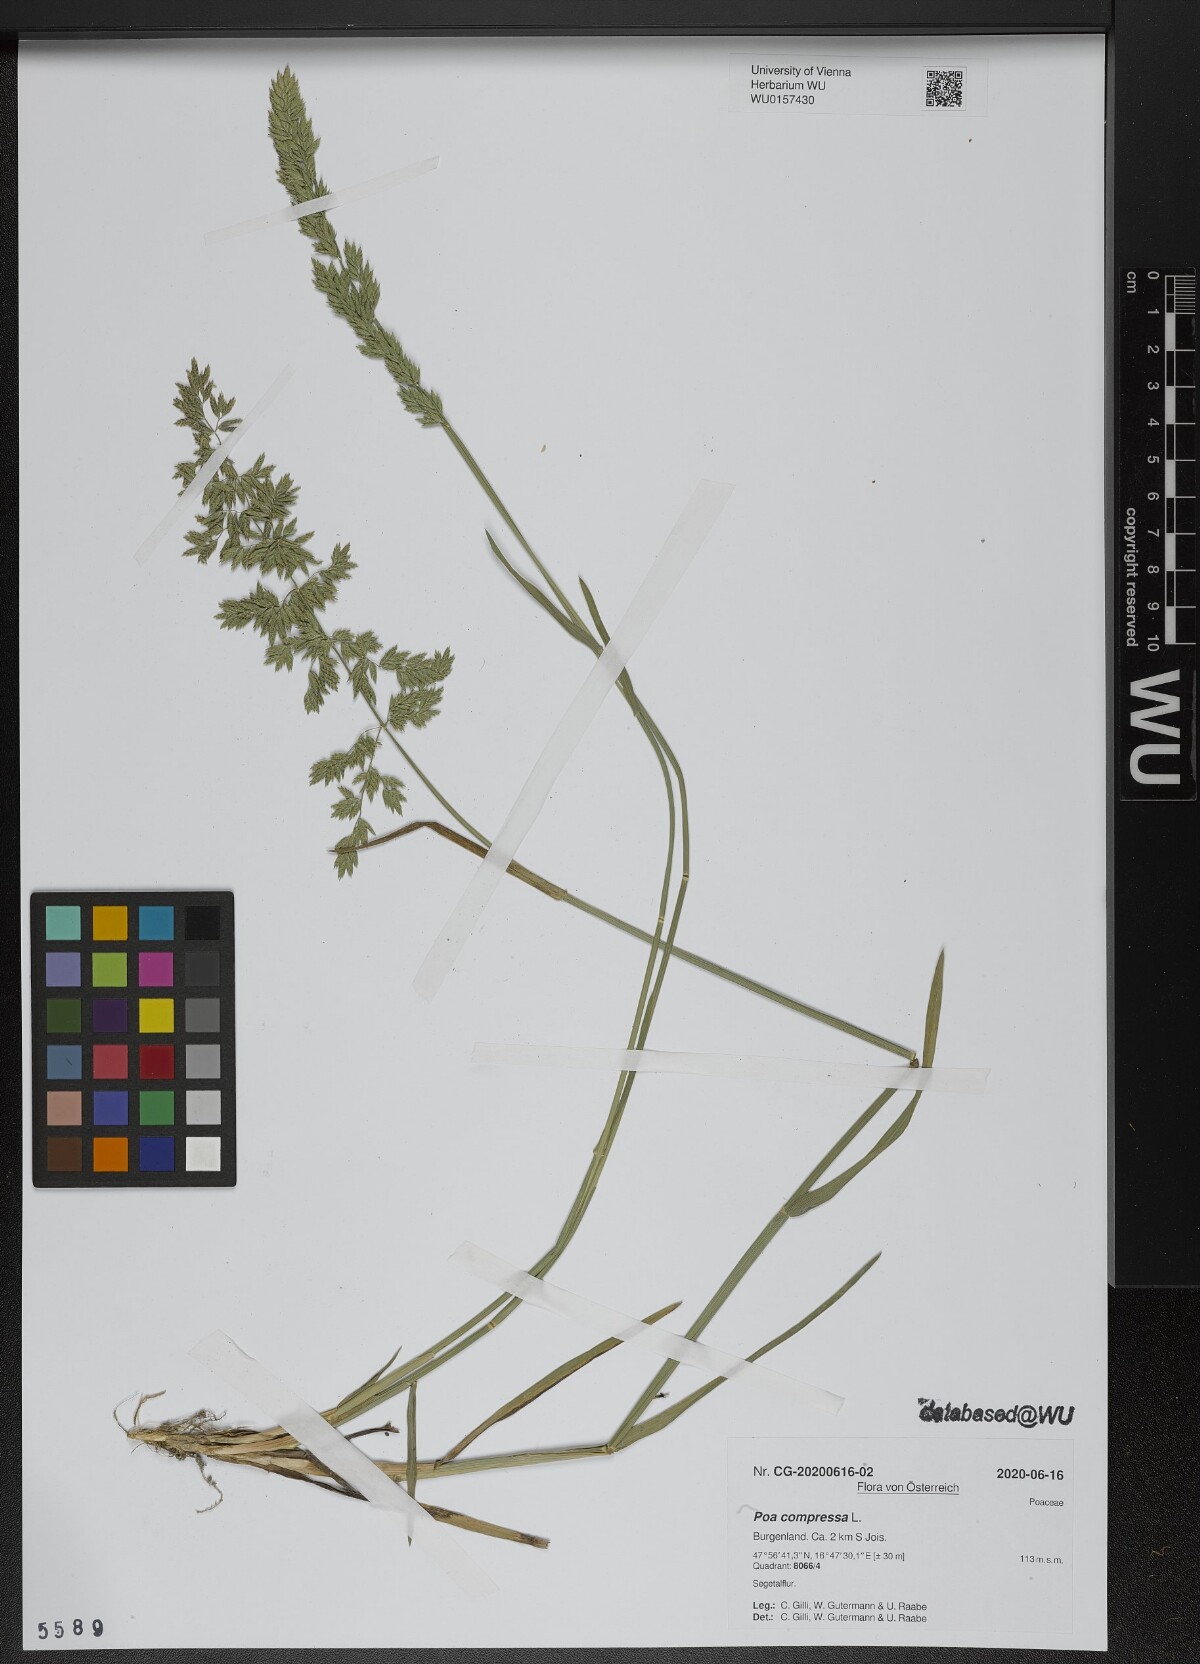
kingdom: Plantae
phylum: Tracheophyta
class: Liliopsida
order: Poales
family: Poaceae
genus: Poa
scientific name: Poa compressa
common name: Canada bluegrass
